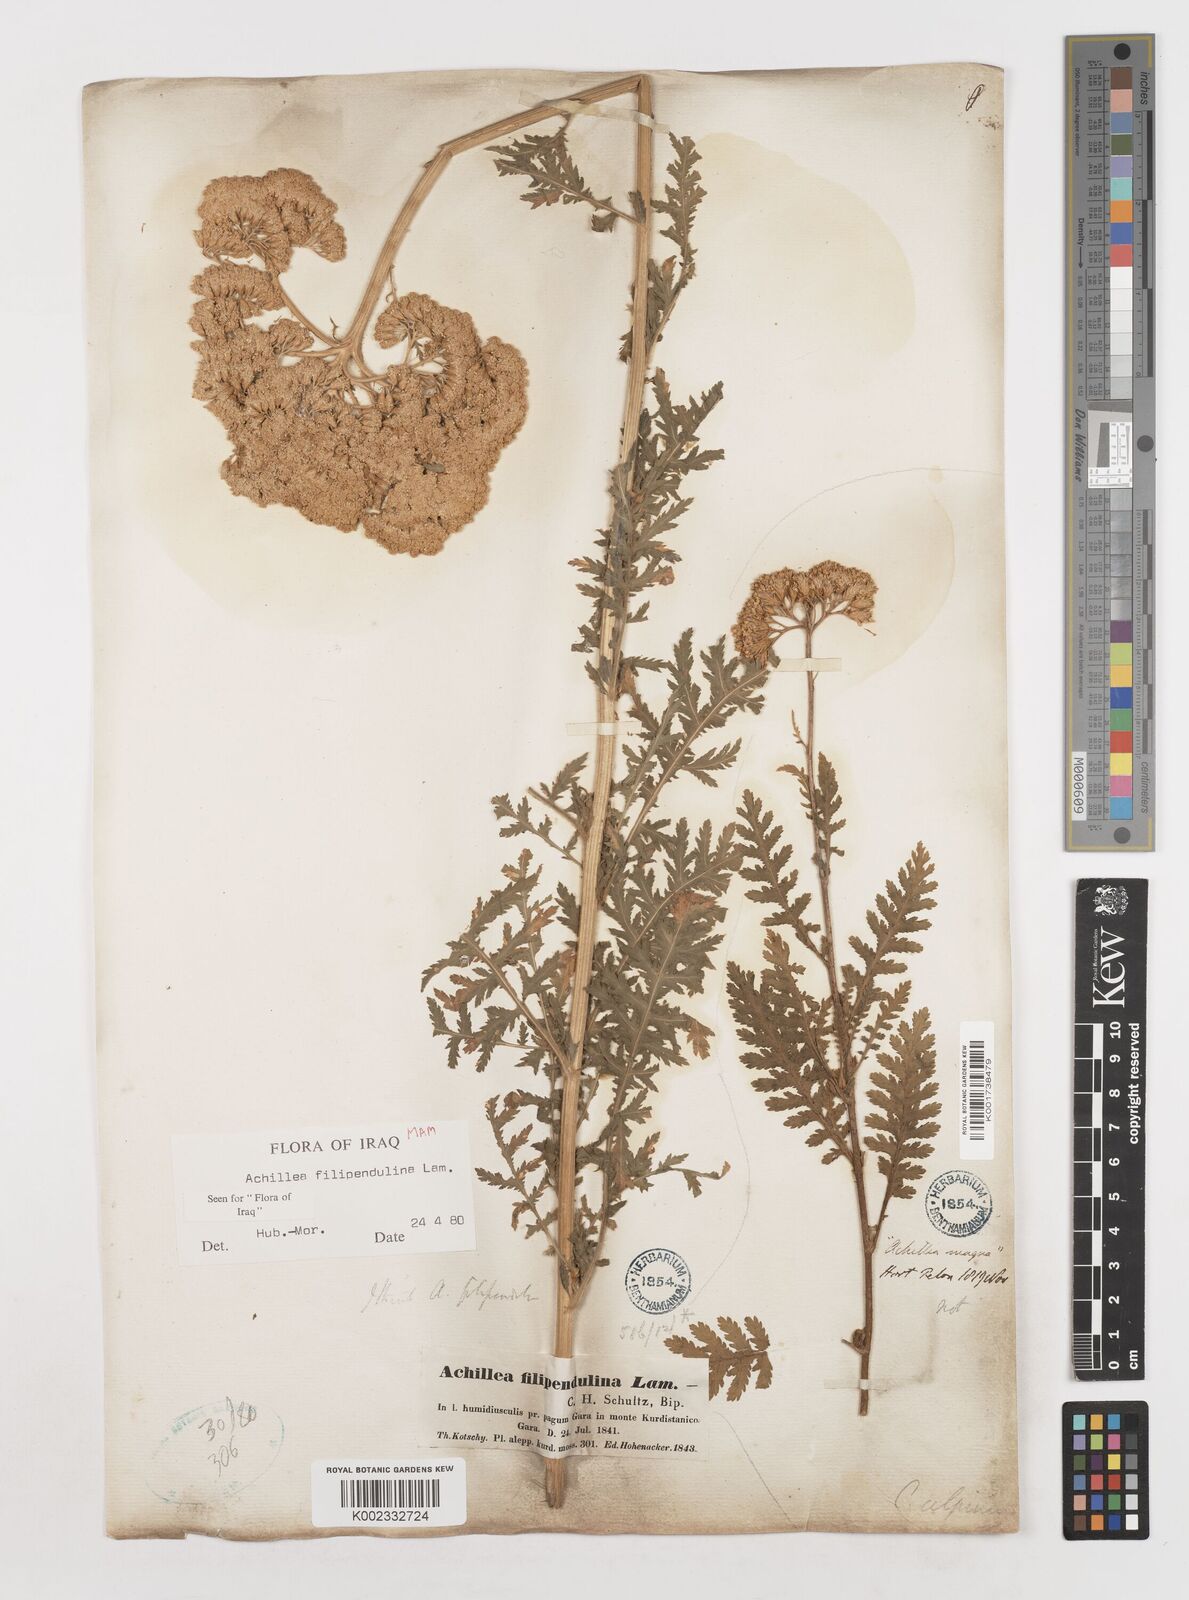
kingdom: Plantae
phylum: Tracheophyta
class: Magnoliopsida
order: Asterales
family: Asteraceae
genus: Achillea
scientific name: Achillea filipendulina
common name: Fernleaf yarrow
